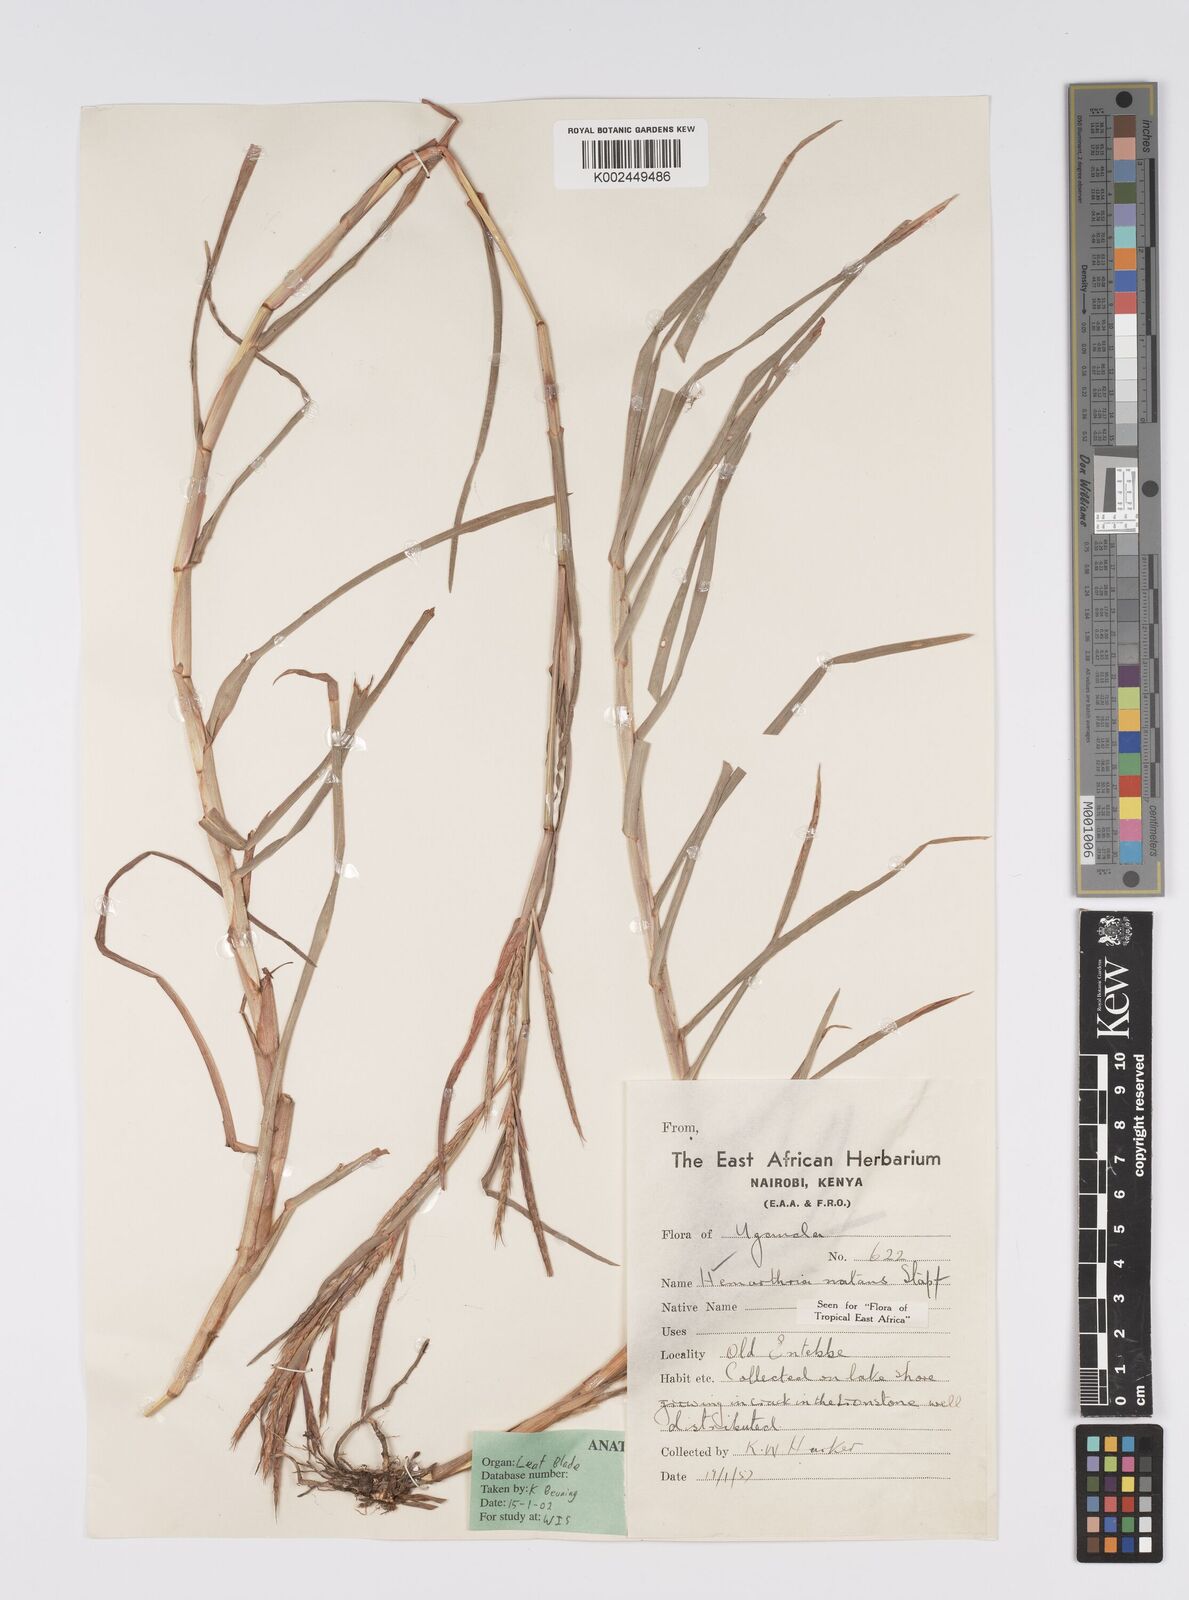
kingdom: Plantae
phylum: Tracheophyta
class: Liliopsida
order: Poales
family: Poaceae
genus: Hemarthria
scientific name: Hemarthria natans
